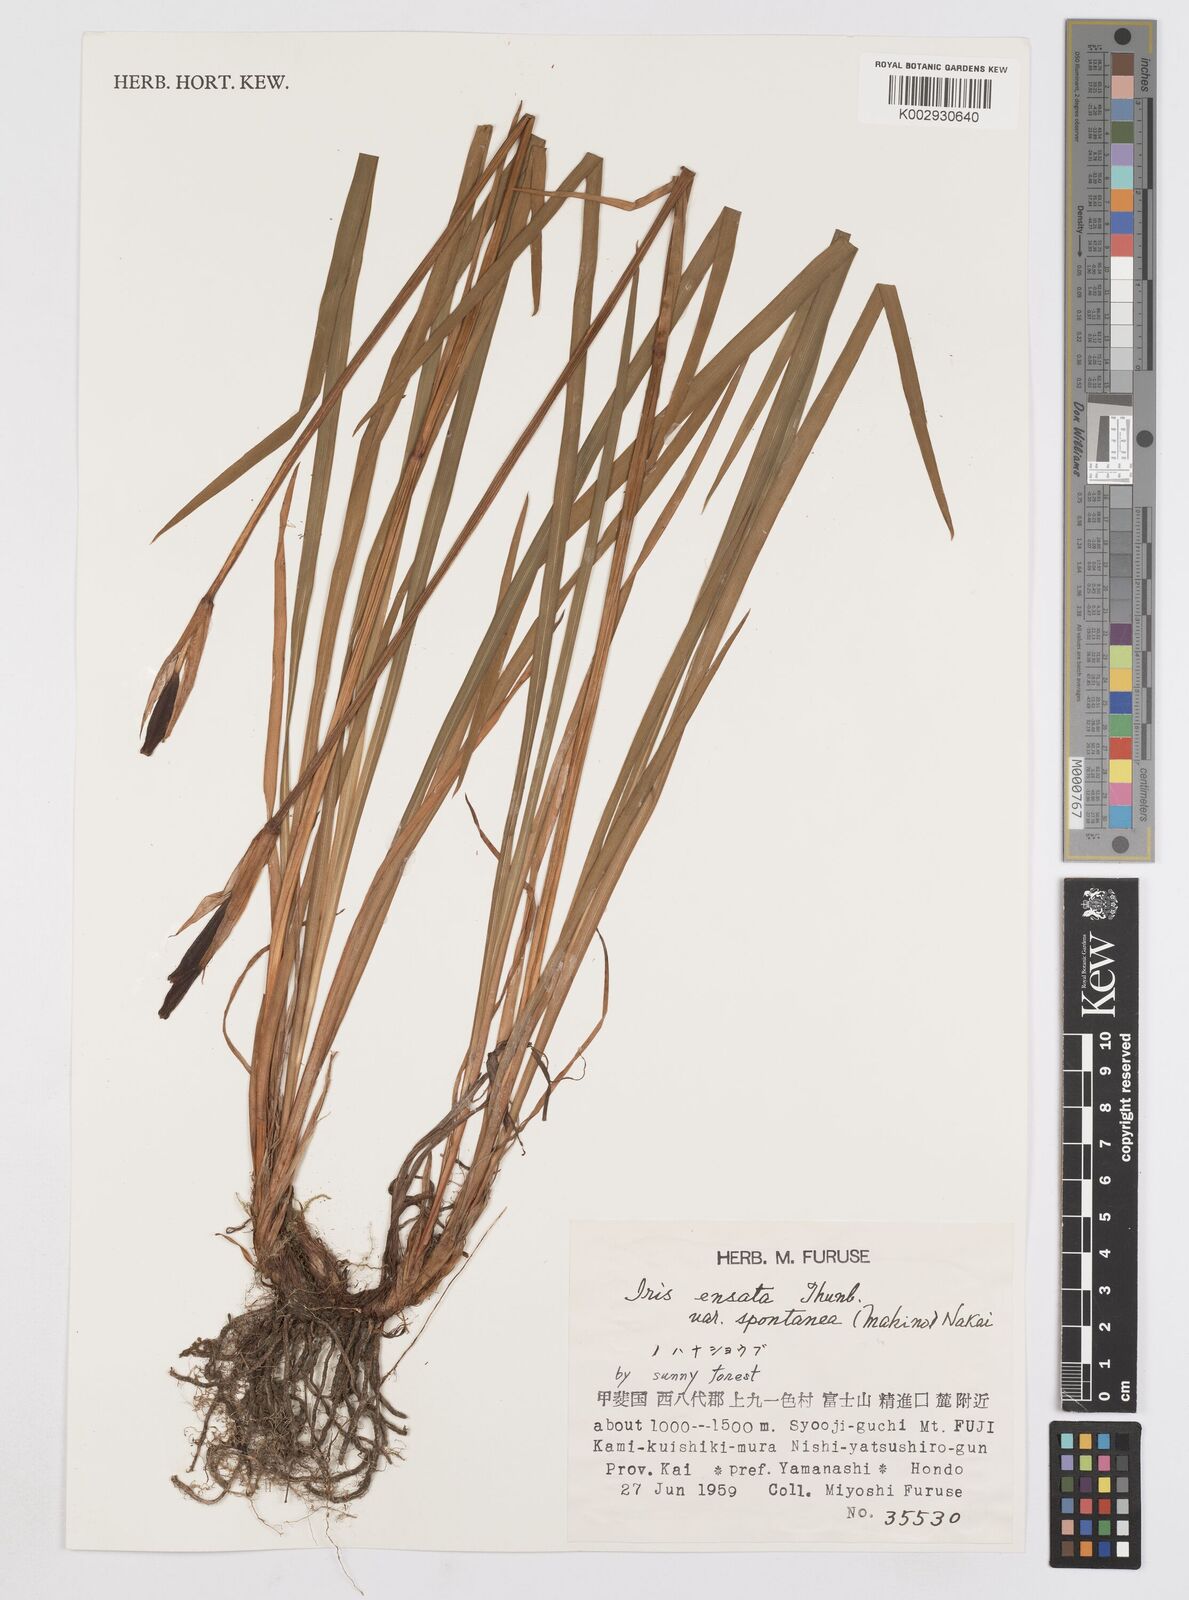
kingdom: Plantae
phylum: Tracheophyta
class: Liliopsida
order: Asparagales
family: Iridaceae
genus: Iris
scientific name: Iris ensata
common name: Beaked iris
